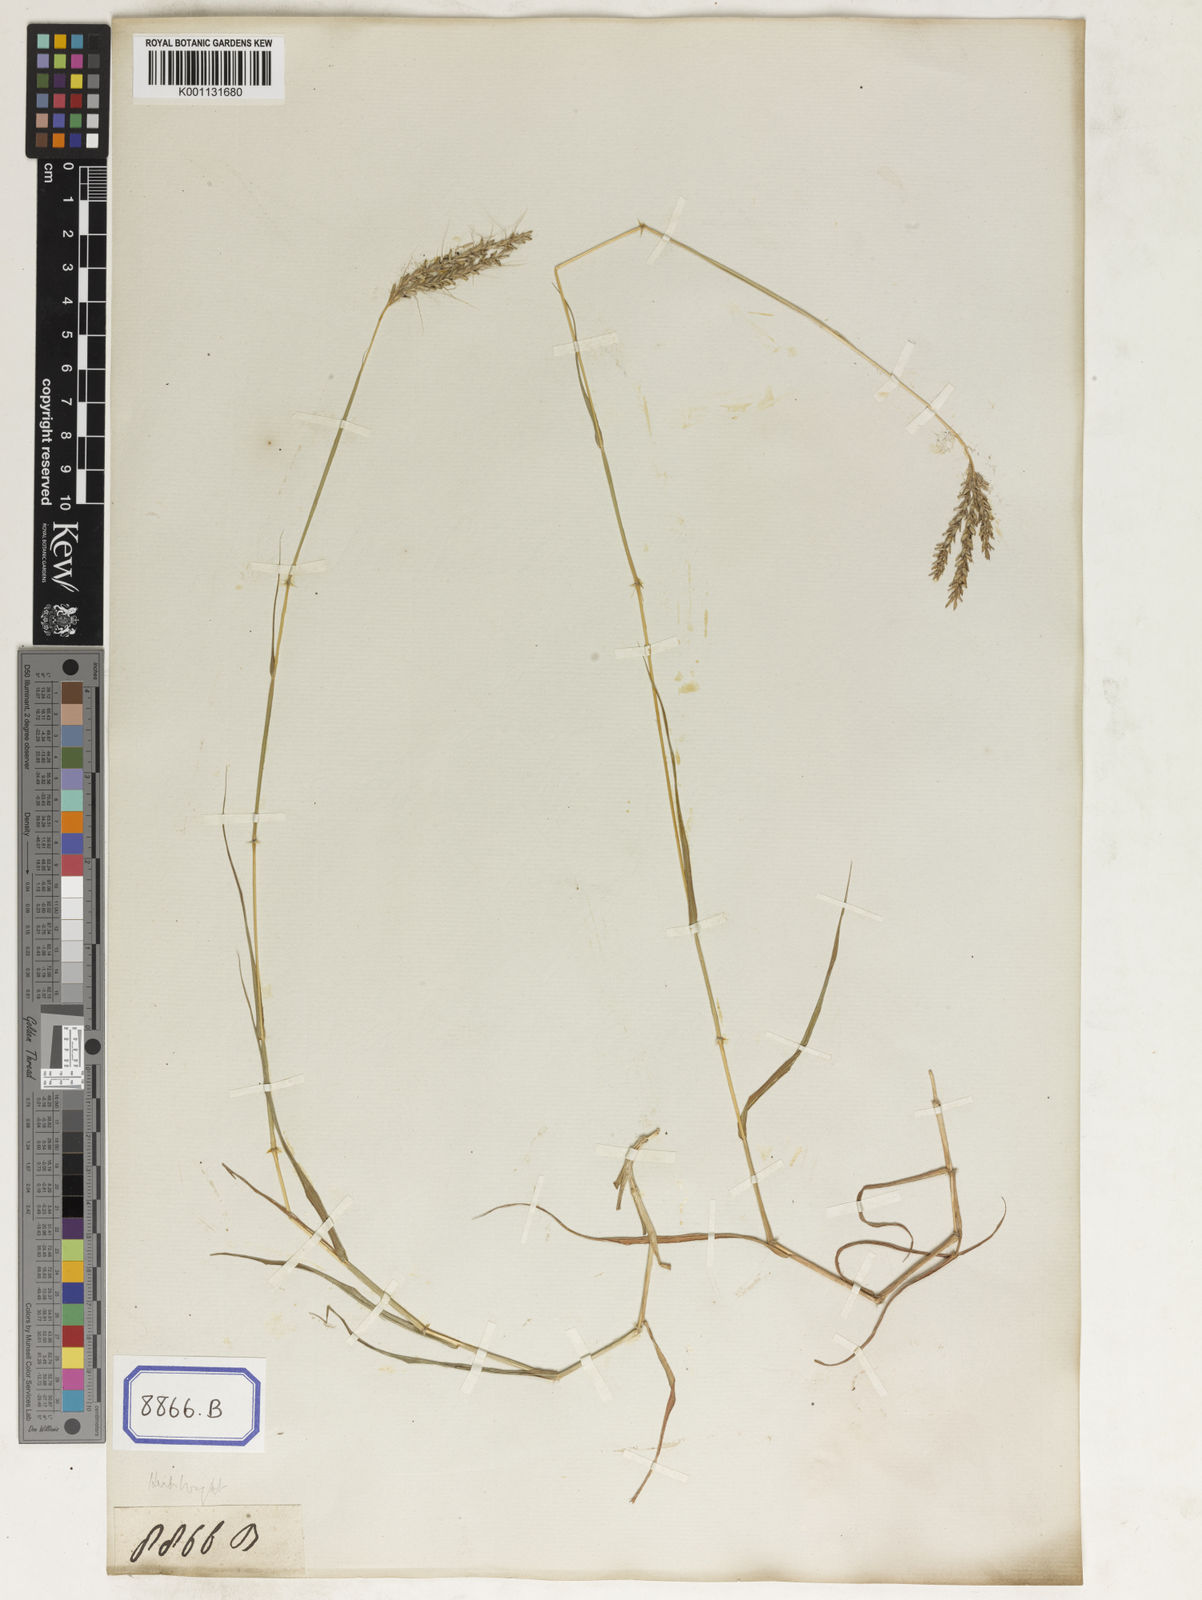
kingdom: Plantae
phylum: Tracheophyta
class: Liliopsida
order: Poales
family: Poaceae
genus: Ischaemum
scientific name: Ischaemum
